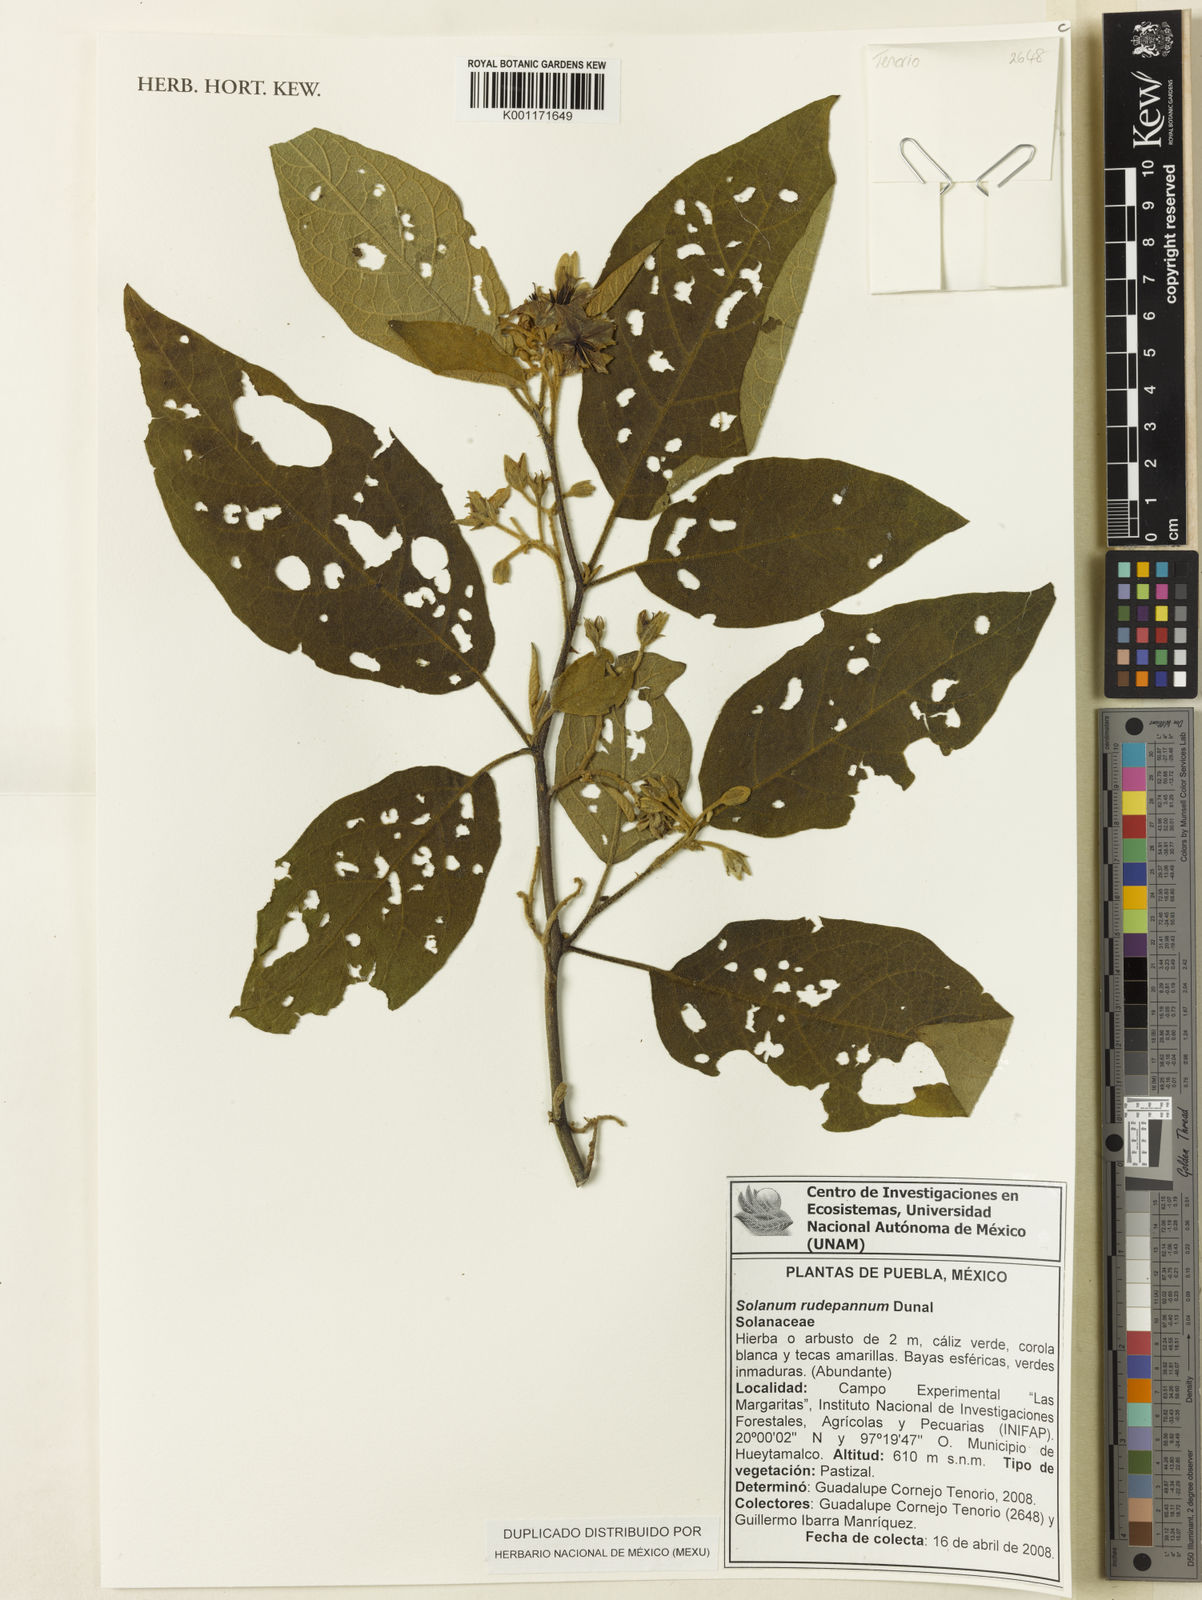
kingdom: Plantae
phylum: Tracheophyta
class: Magnoliopsida
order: Solanales
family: Solanaceae
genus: Solanum
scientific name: Solanum rude-pannum
